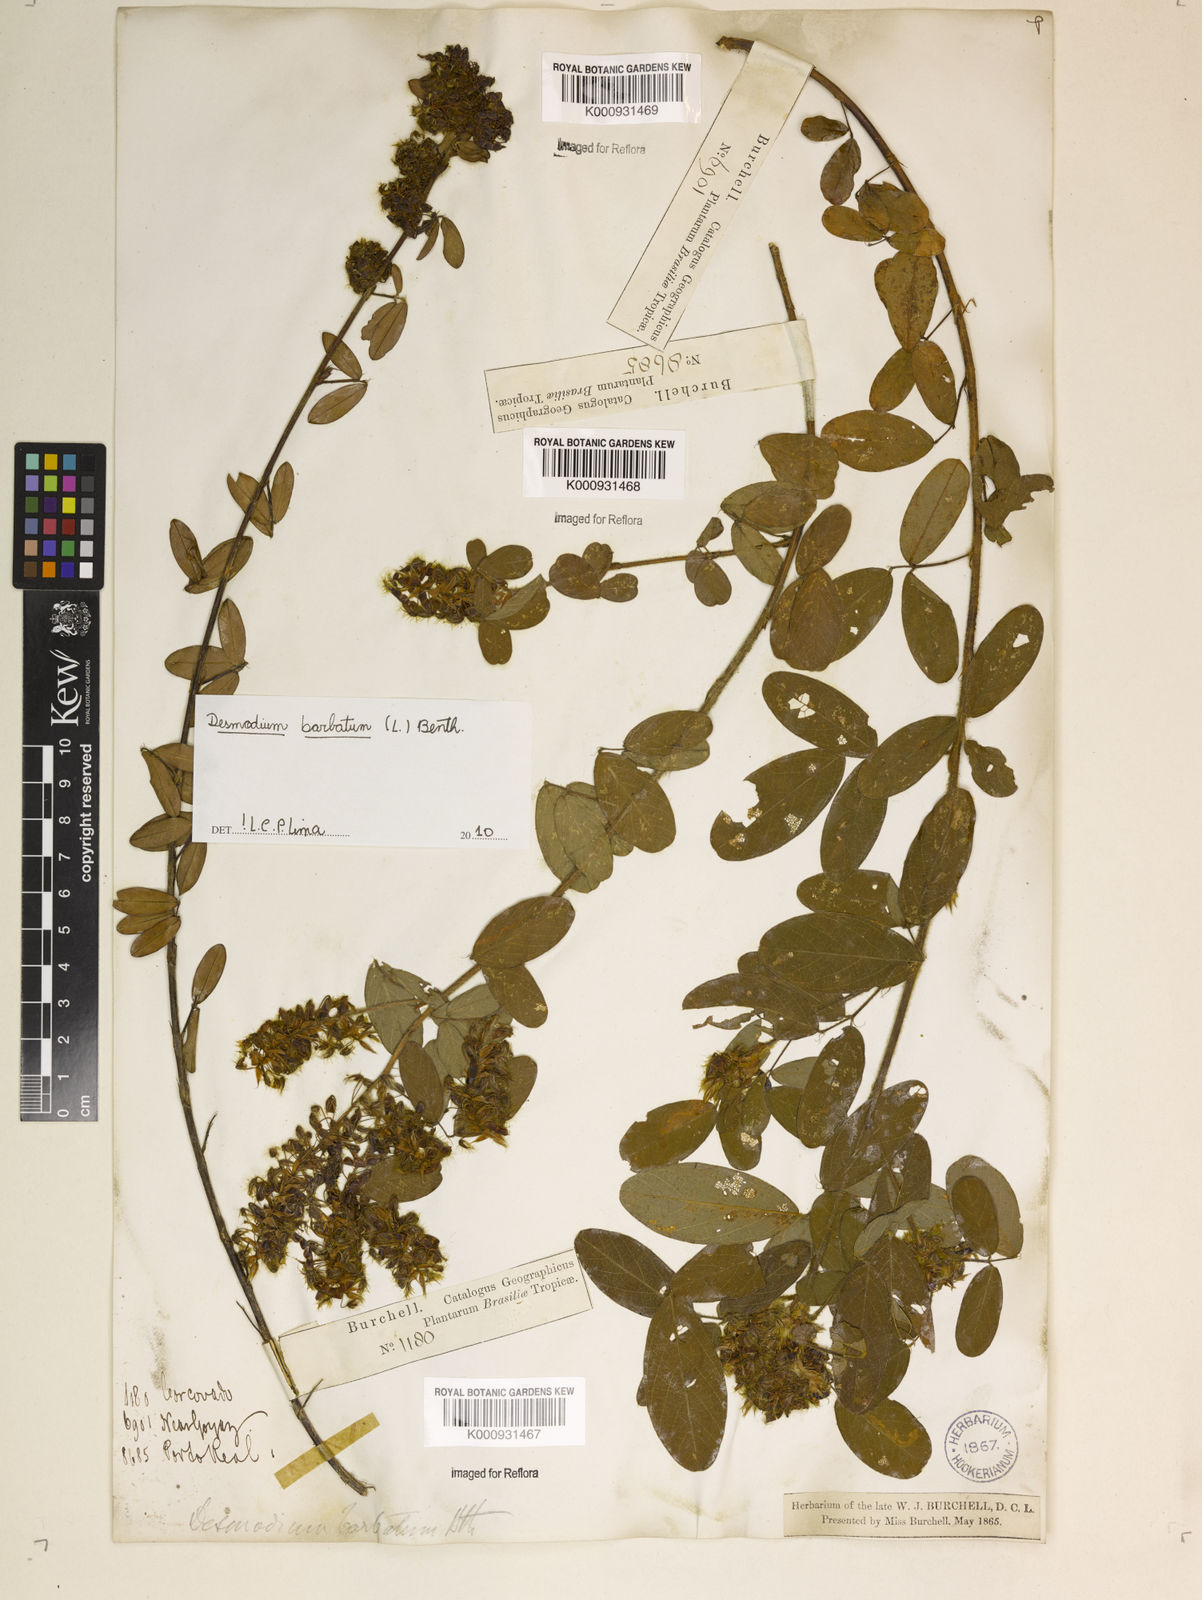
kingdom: Plantae
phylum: Tracheophyta
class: Magnoliopsida
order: Fabales
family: Fabaceae
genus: Grona
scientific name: Grona barbata
